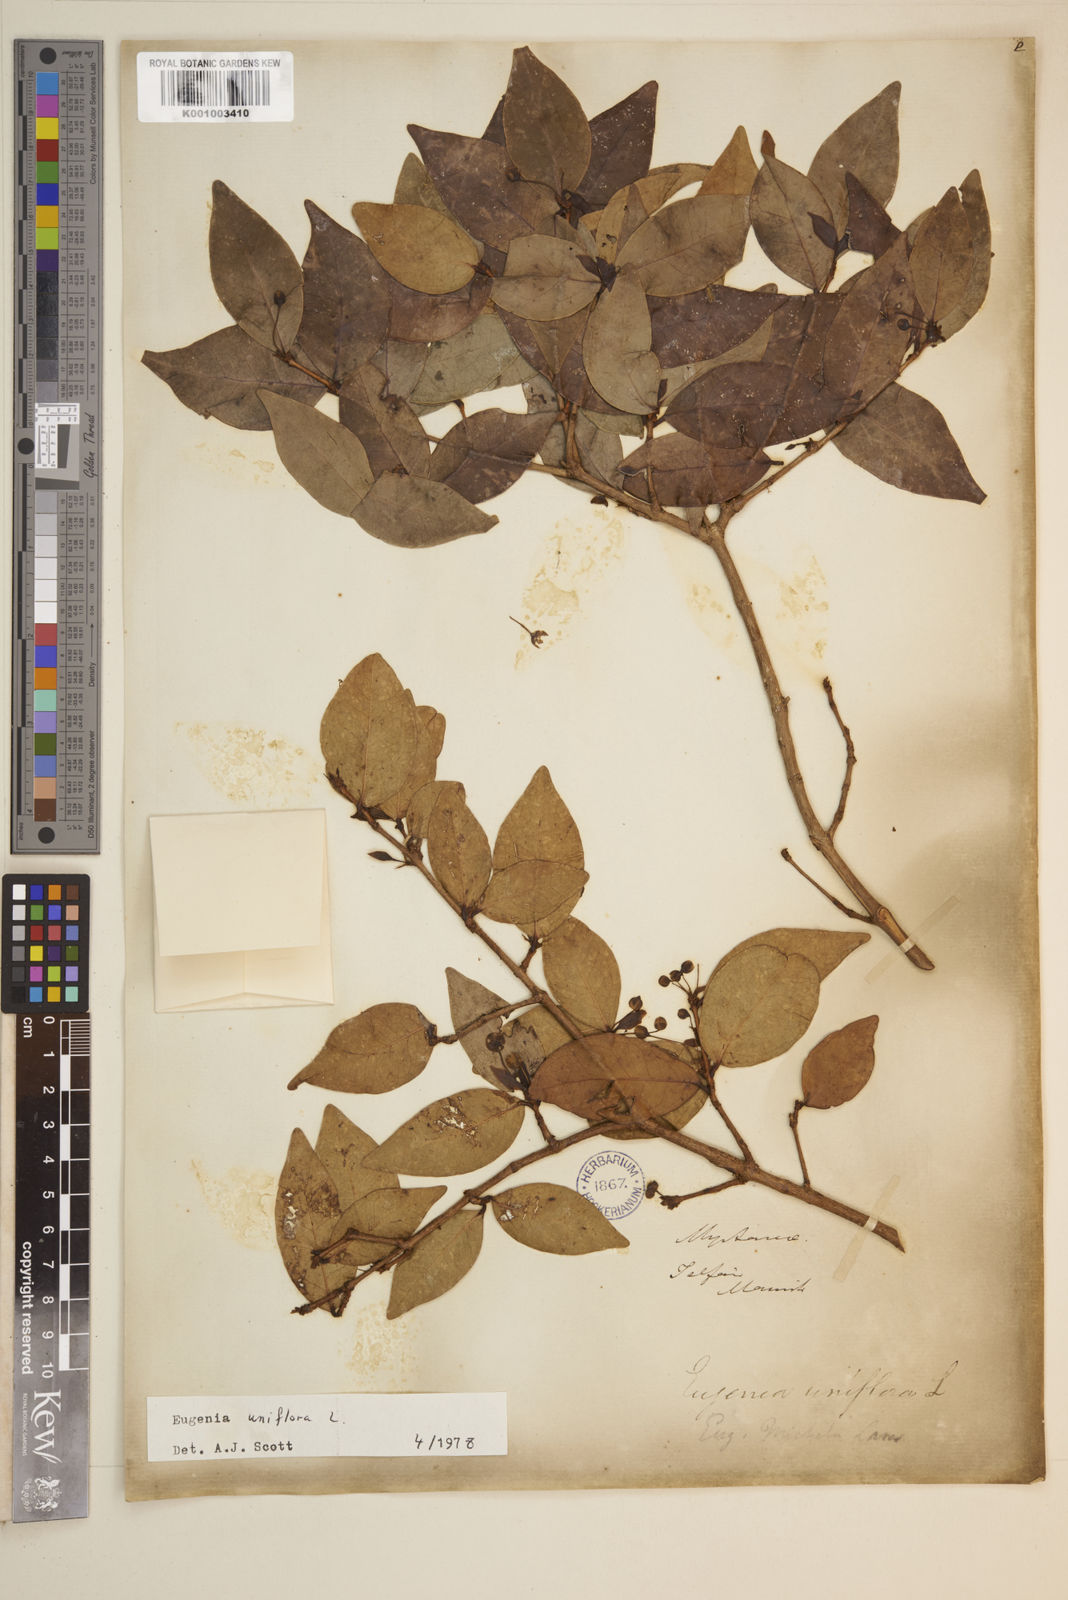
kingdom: Plantae
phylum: Tracheophyta
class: Magnoliopsida
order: Myrtales
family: Myrtaceae
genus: Eugenia
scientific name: Eugenia uniflora
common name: Surinam cherry
